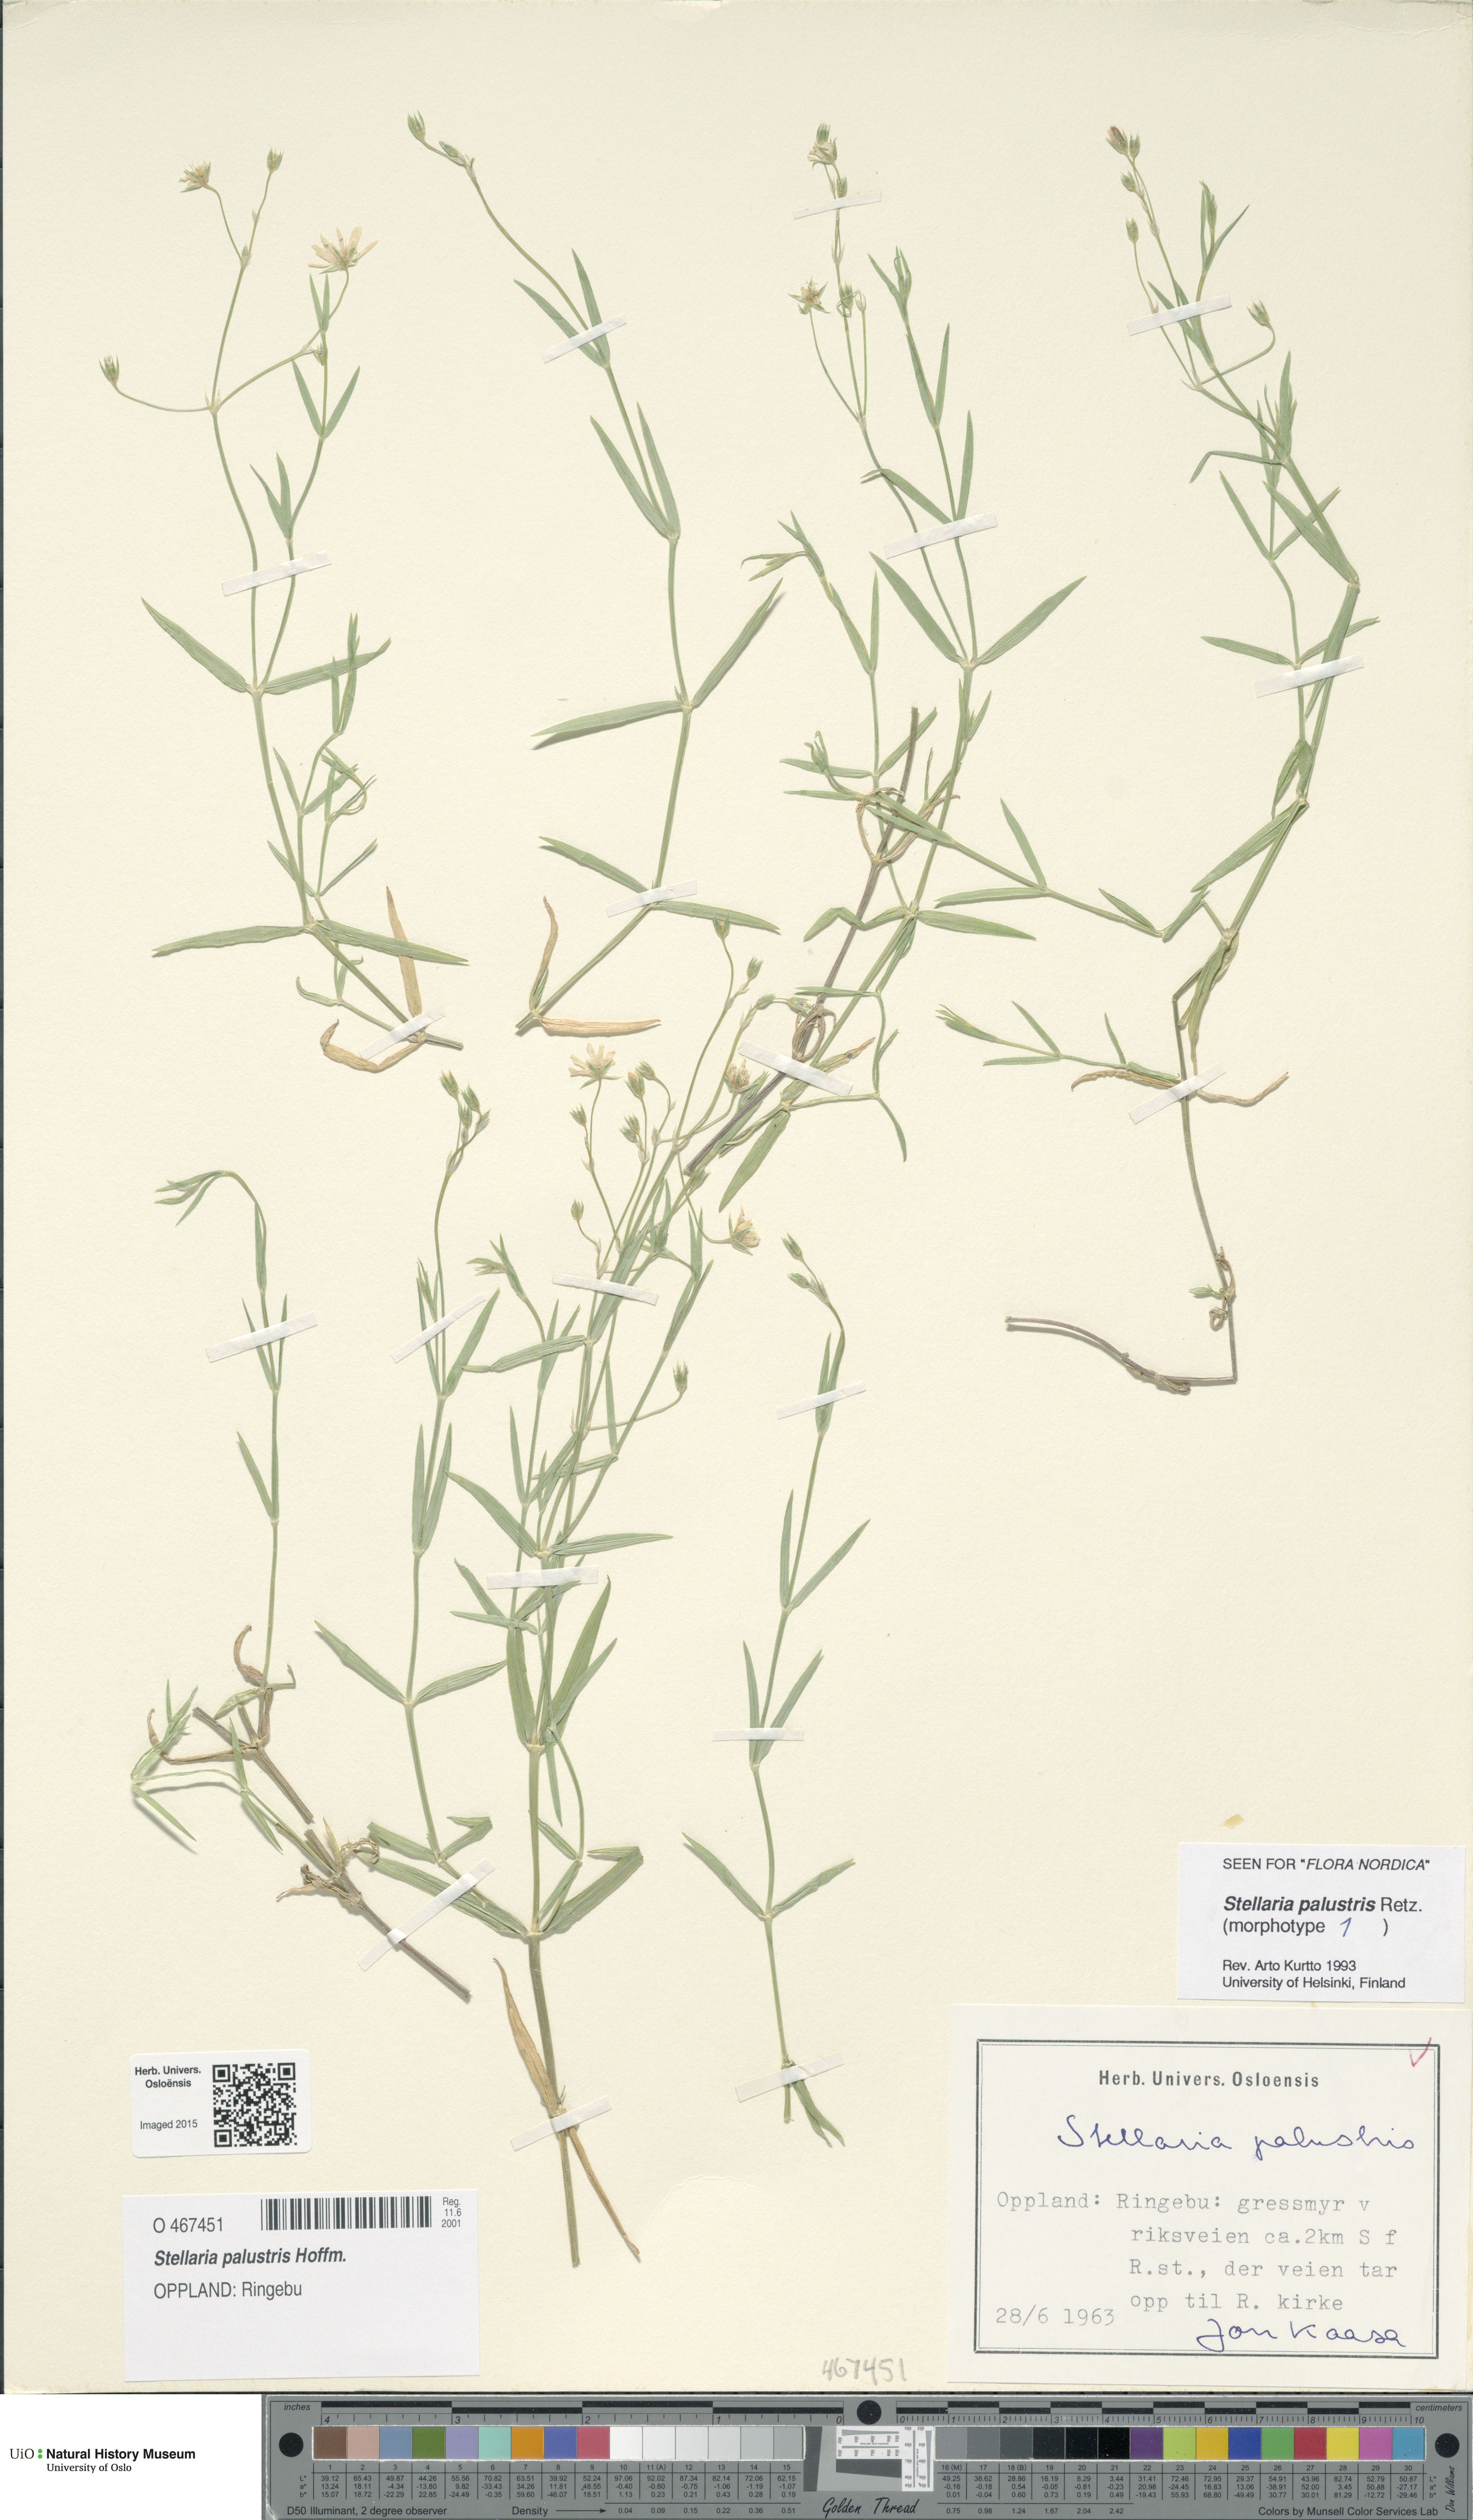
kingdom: Plantae
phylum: Tracheophyta
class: Magnoliopsida
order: Caryophyllales
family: Caryophyllaceae
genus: Stellaria
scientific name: Stellaria palustris
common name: Marsh stitchwort
